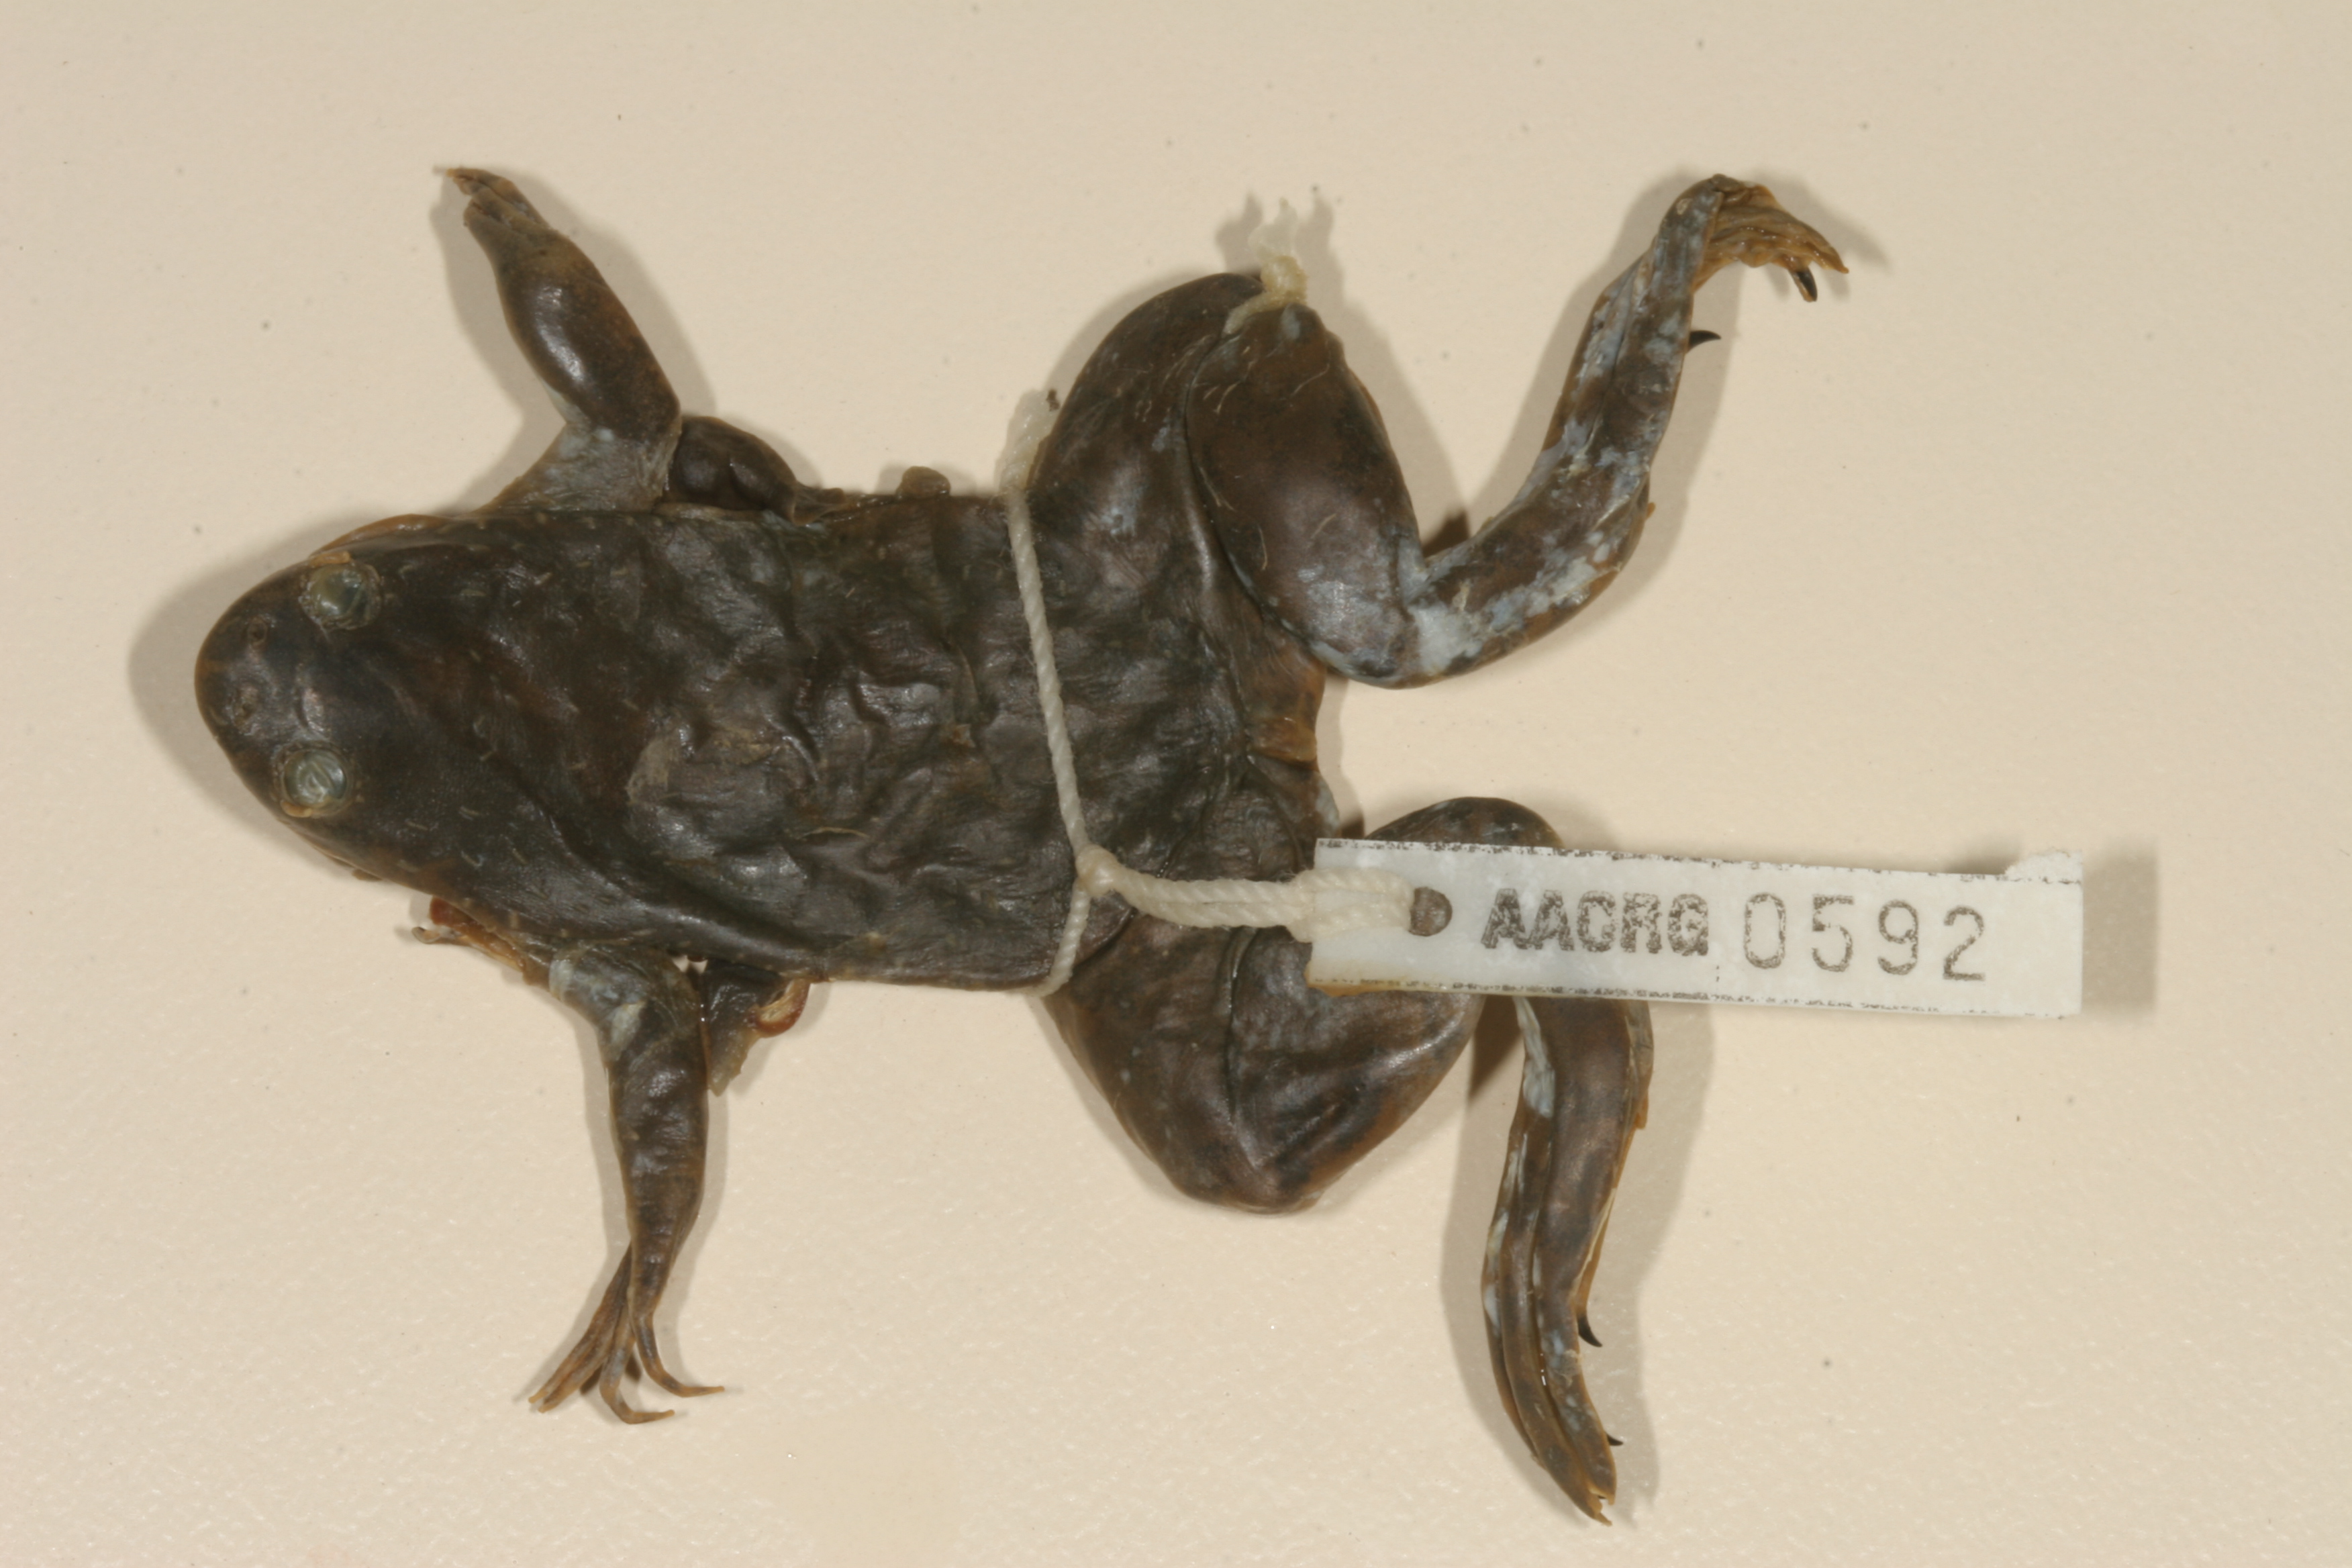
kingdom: Animalia
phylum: Chordata
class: Amphibia
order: Anura
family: Pipidae
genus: Xenopus
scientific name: Xenopus muelleri
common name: Muller's clawed frog
